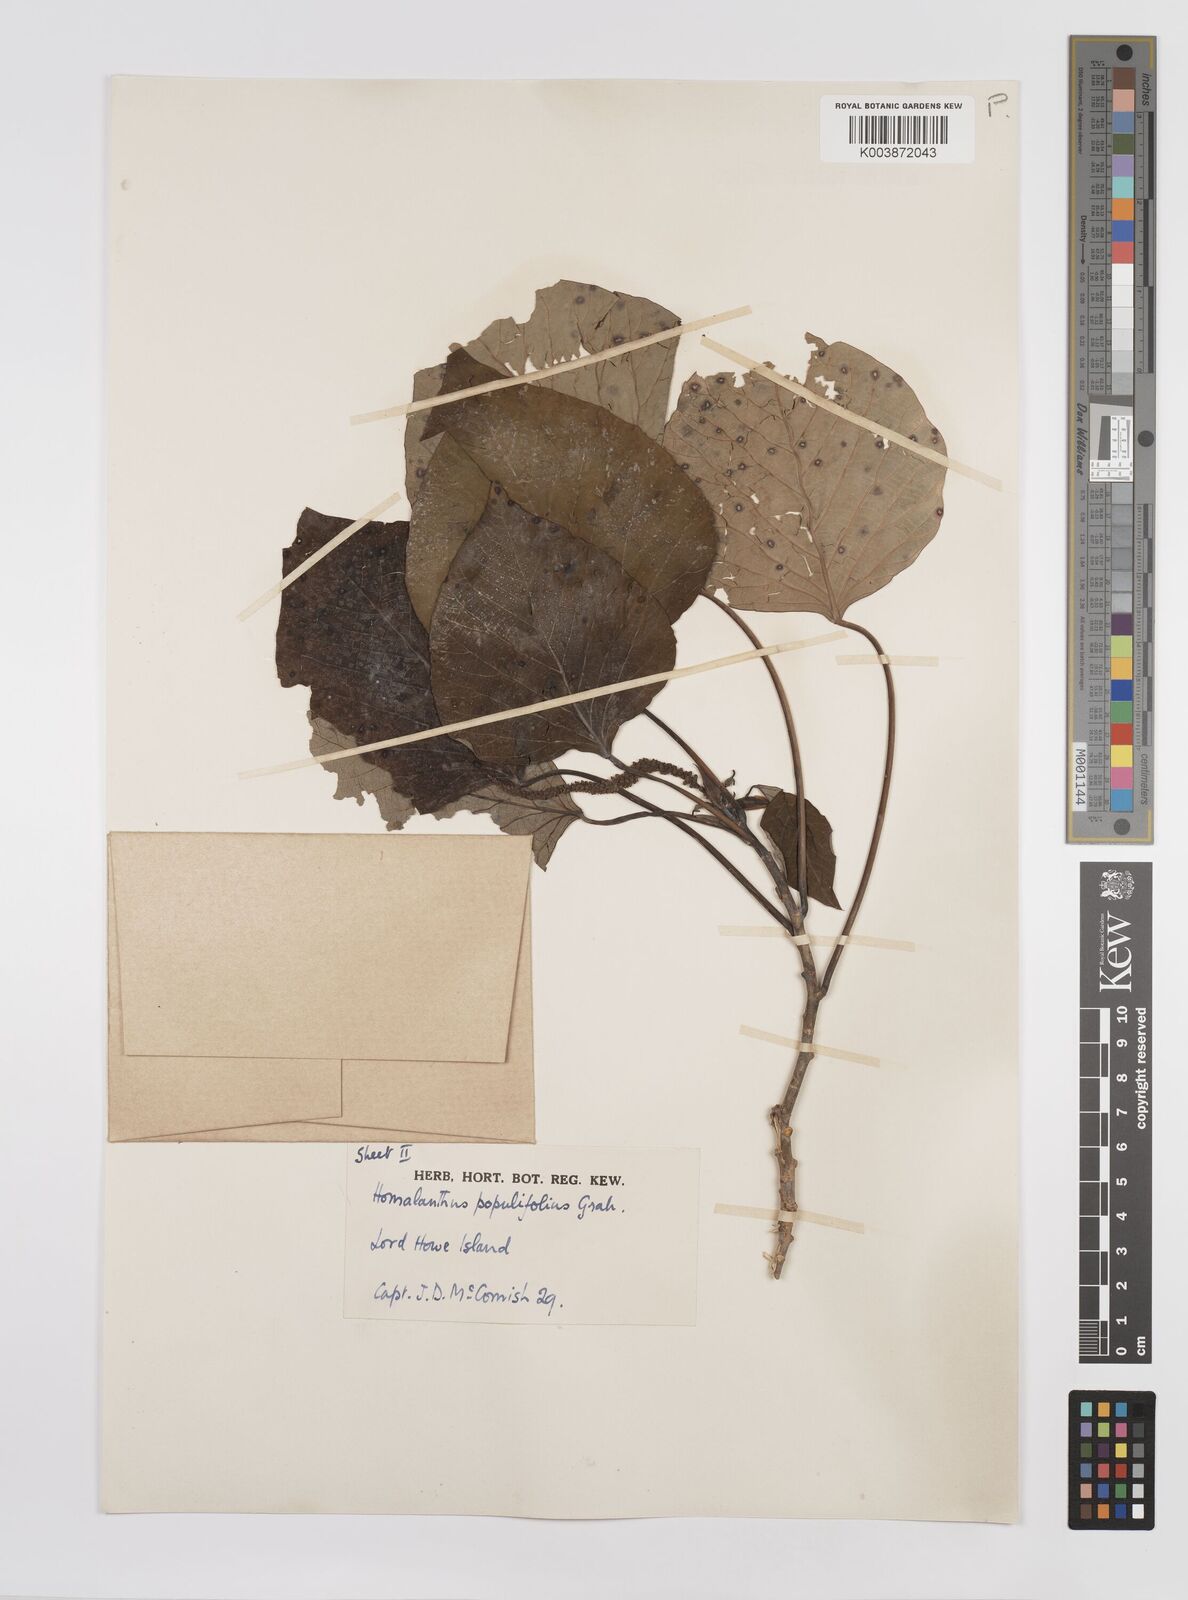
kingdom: Plantae
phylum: Tracheophyta
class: Magnoliopsida
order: Malpighiales
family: Euphorbiaceae
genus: Homalanthus
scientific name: Homalanthus populifolius
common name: Queensland poplar
